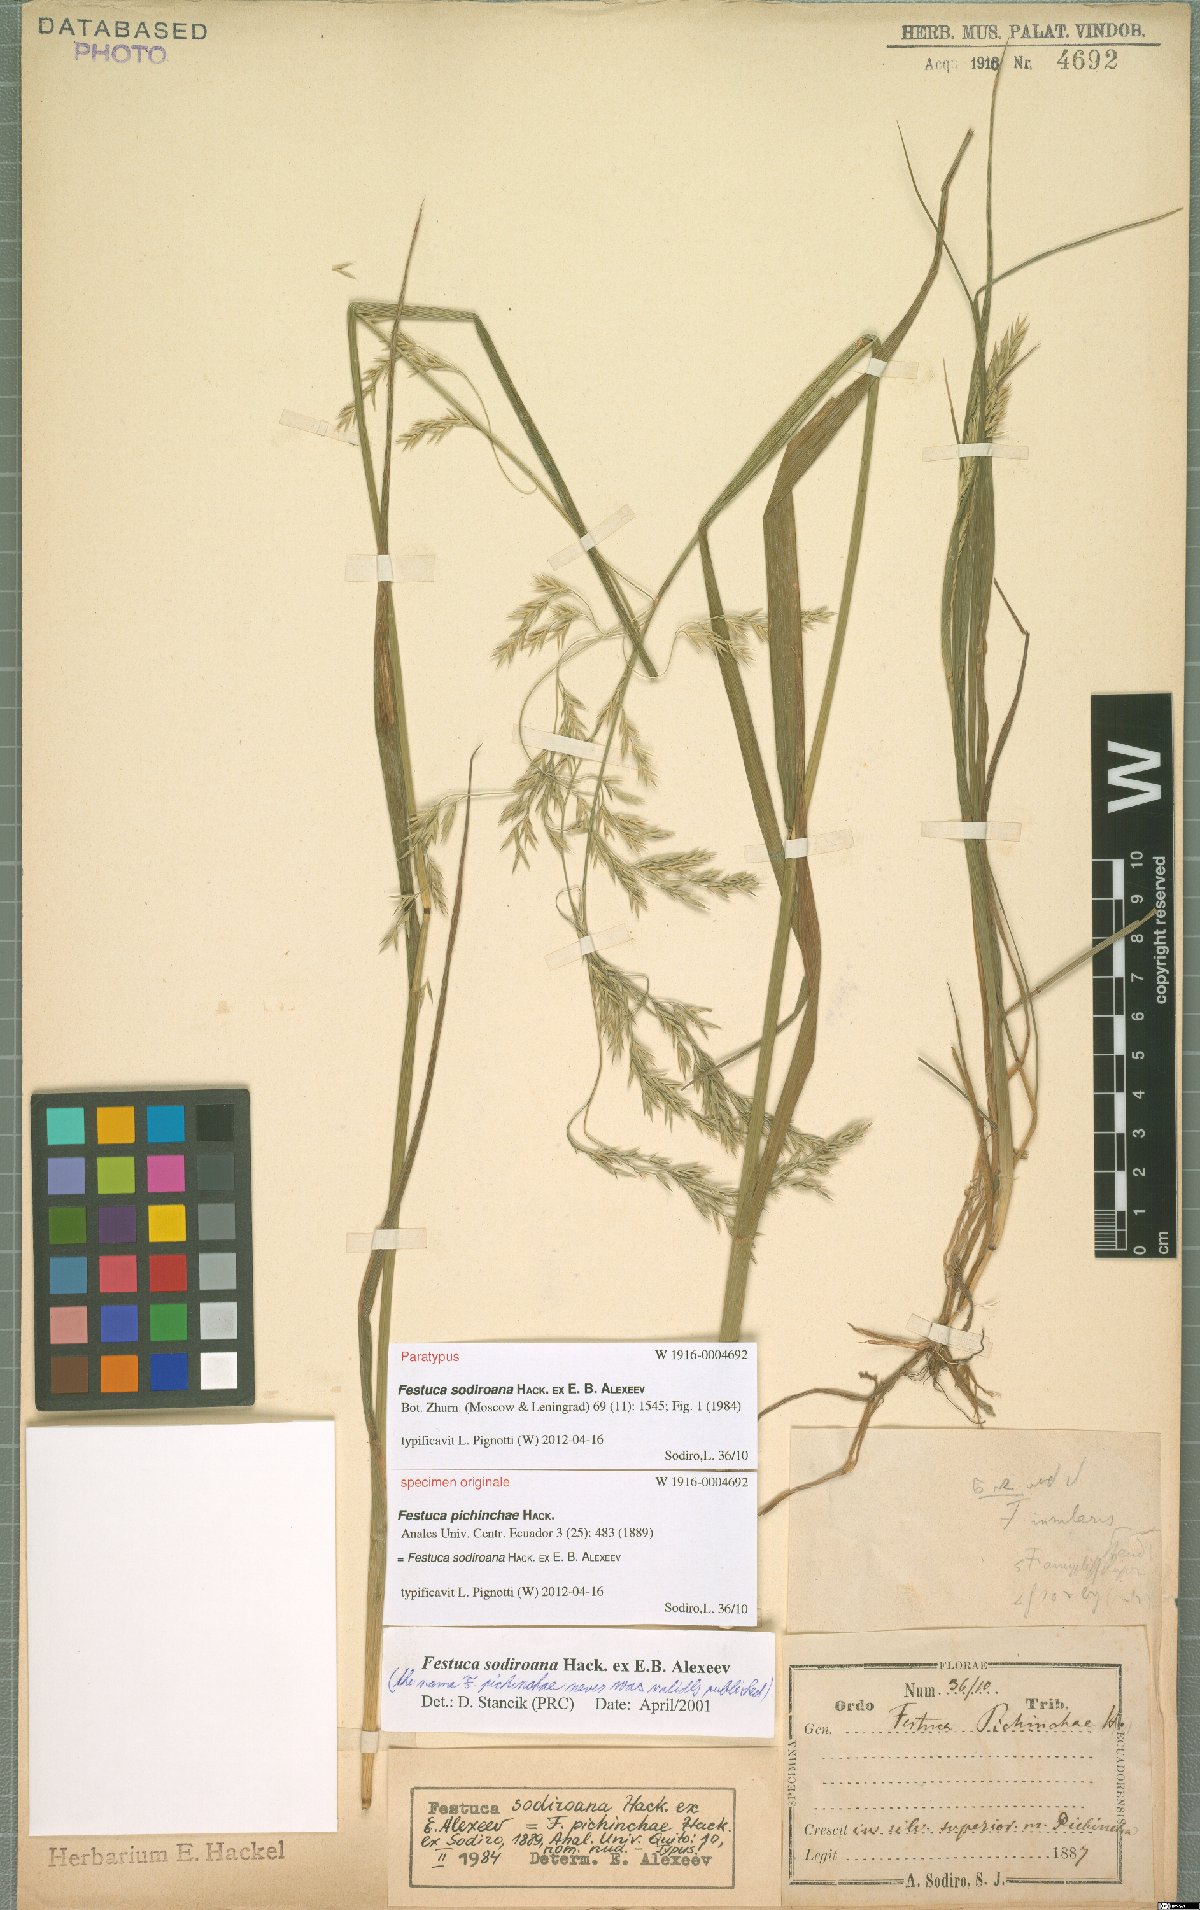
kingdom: Plantae
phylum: Tracheophyta
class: Liliopsida
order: Poales
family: Poaceae
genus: Festuca
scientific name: Festuca sodiroana
